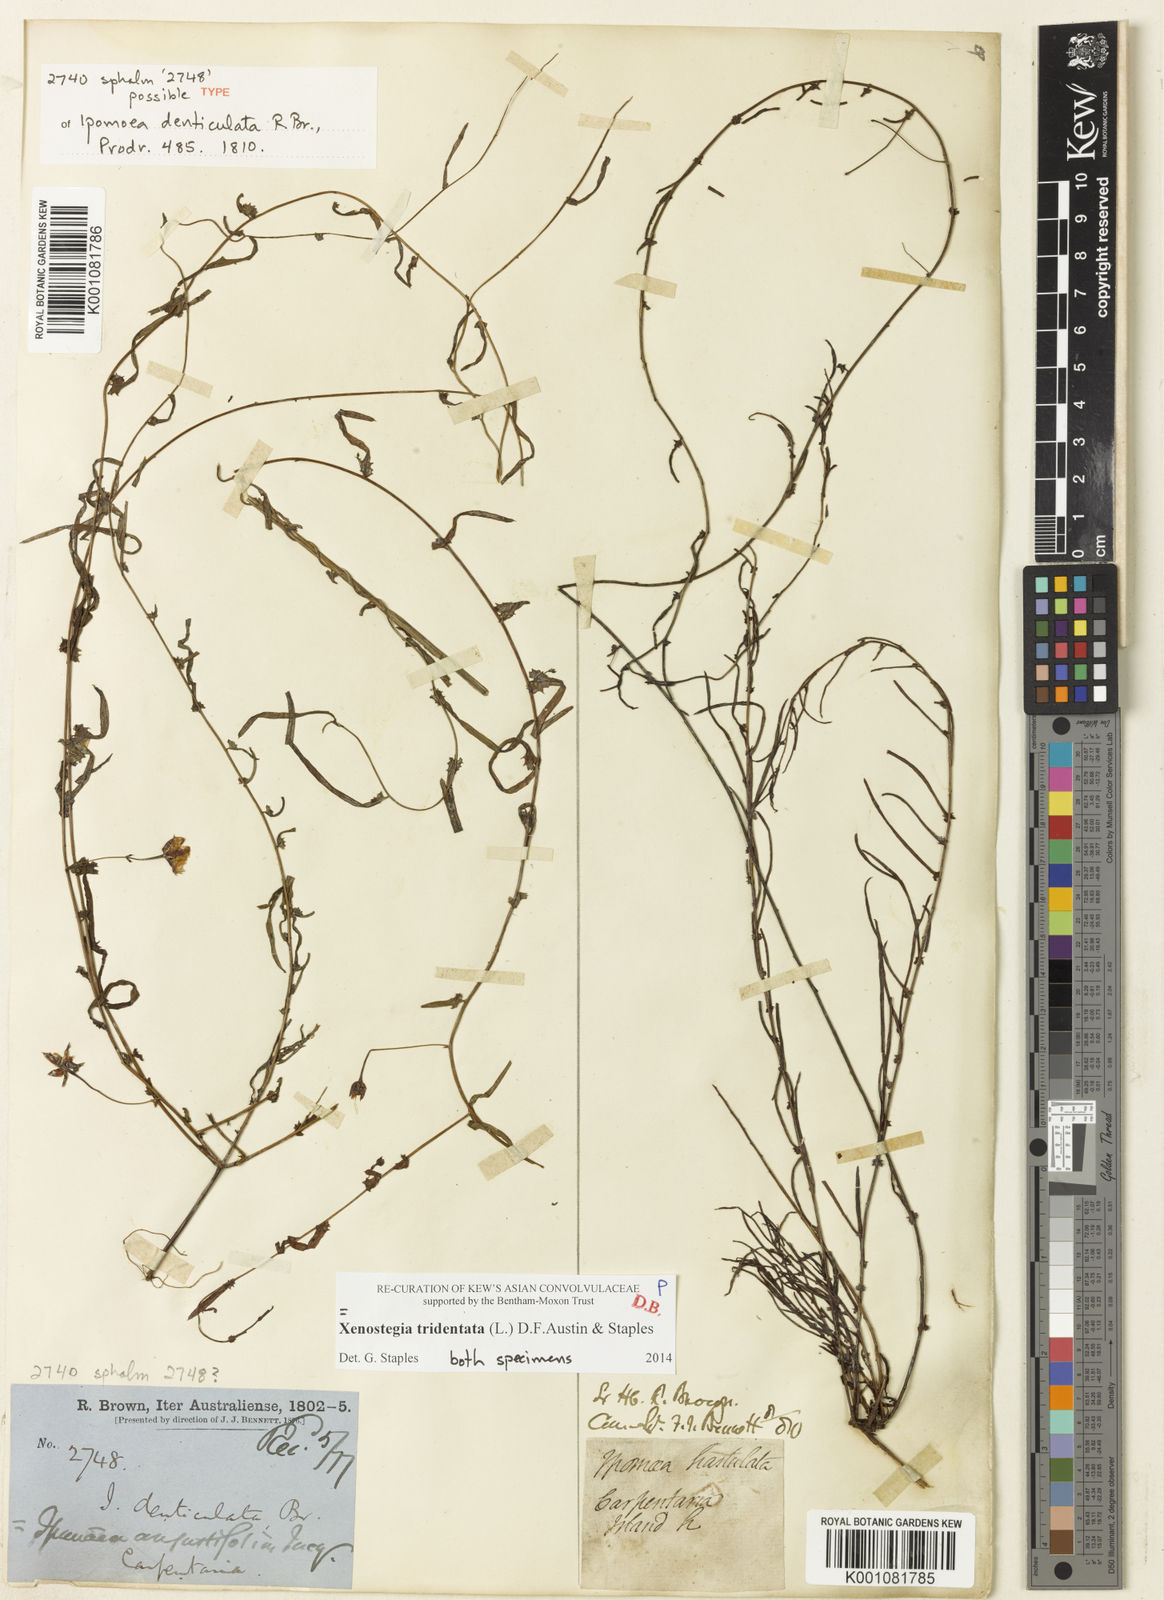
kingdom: Plantae
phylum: Tracheophyta
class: Magnoliopsida
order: Solanales
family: Convolvulaceae
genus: Xenostegia
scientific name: Xenostegia tridentata
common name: African morningvine
